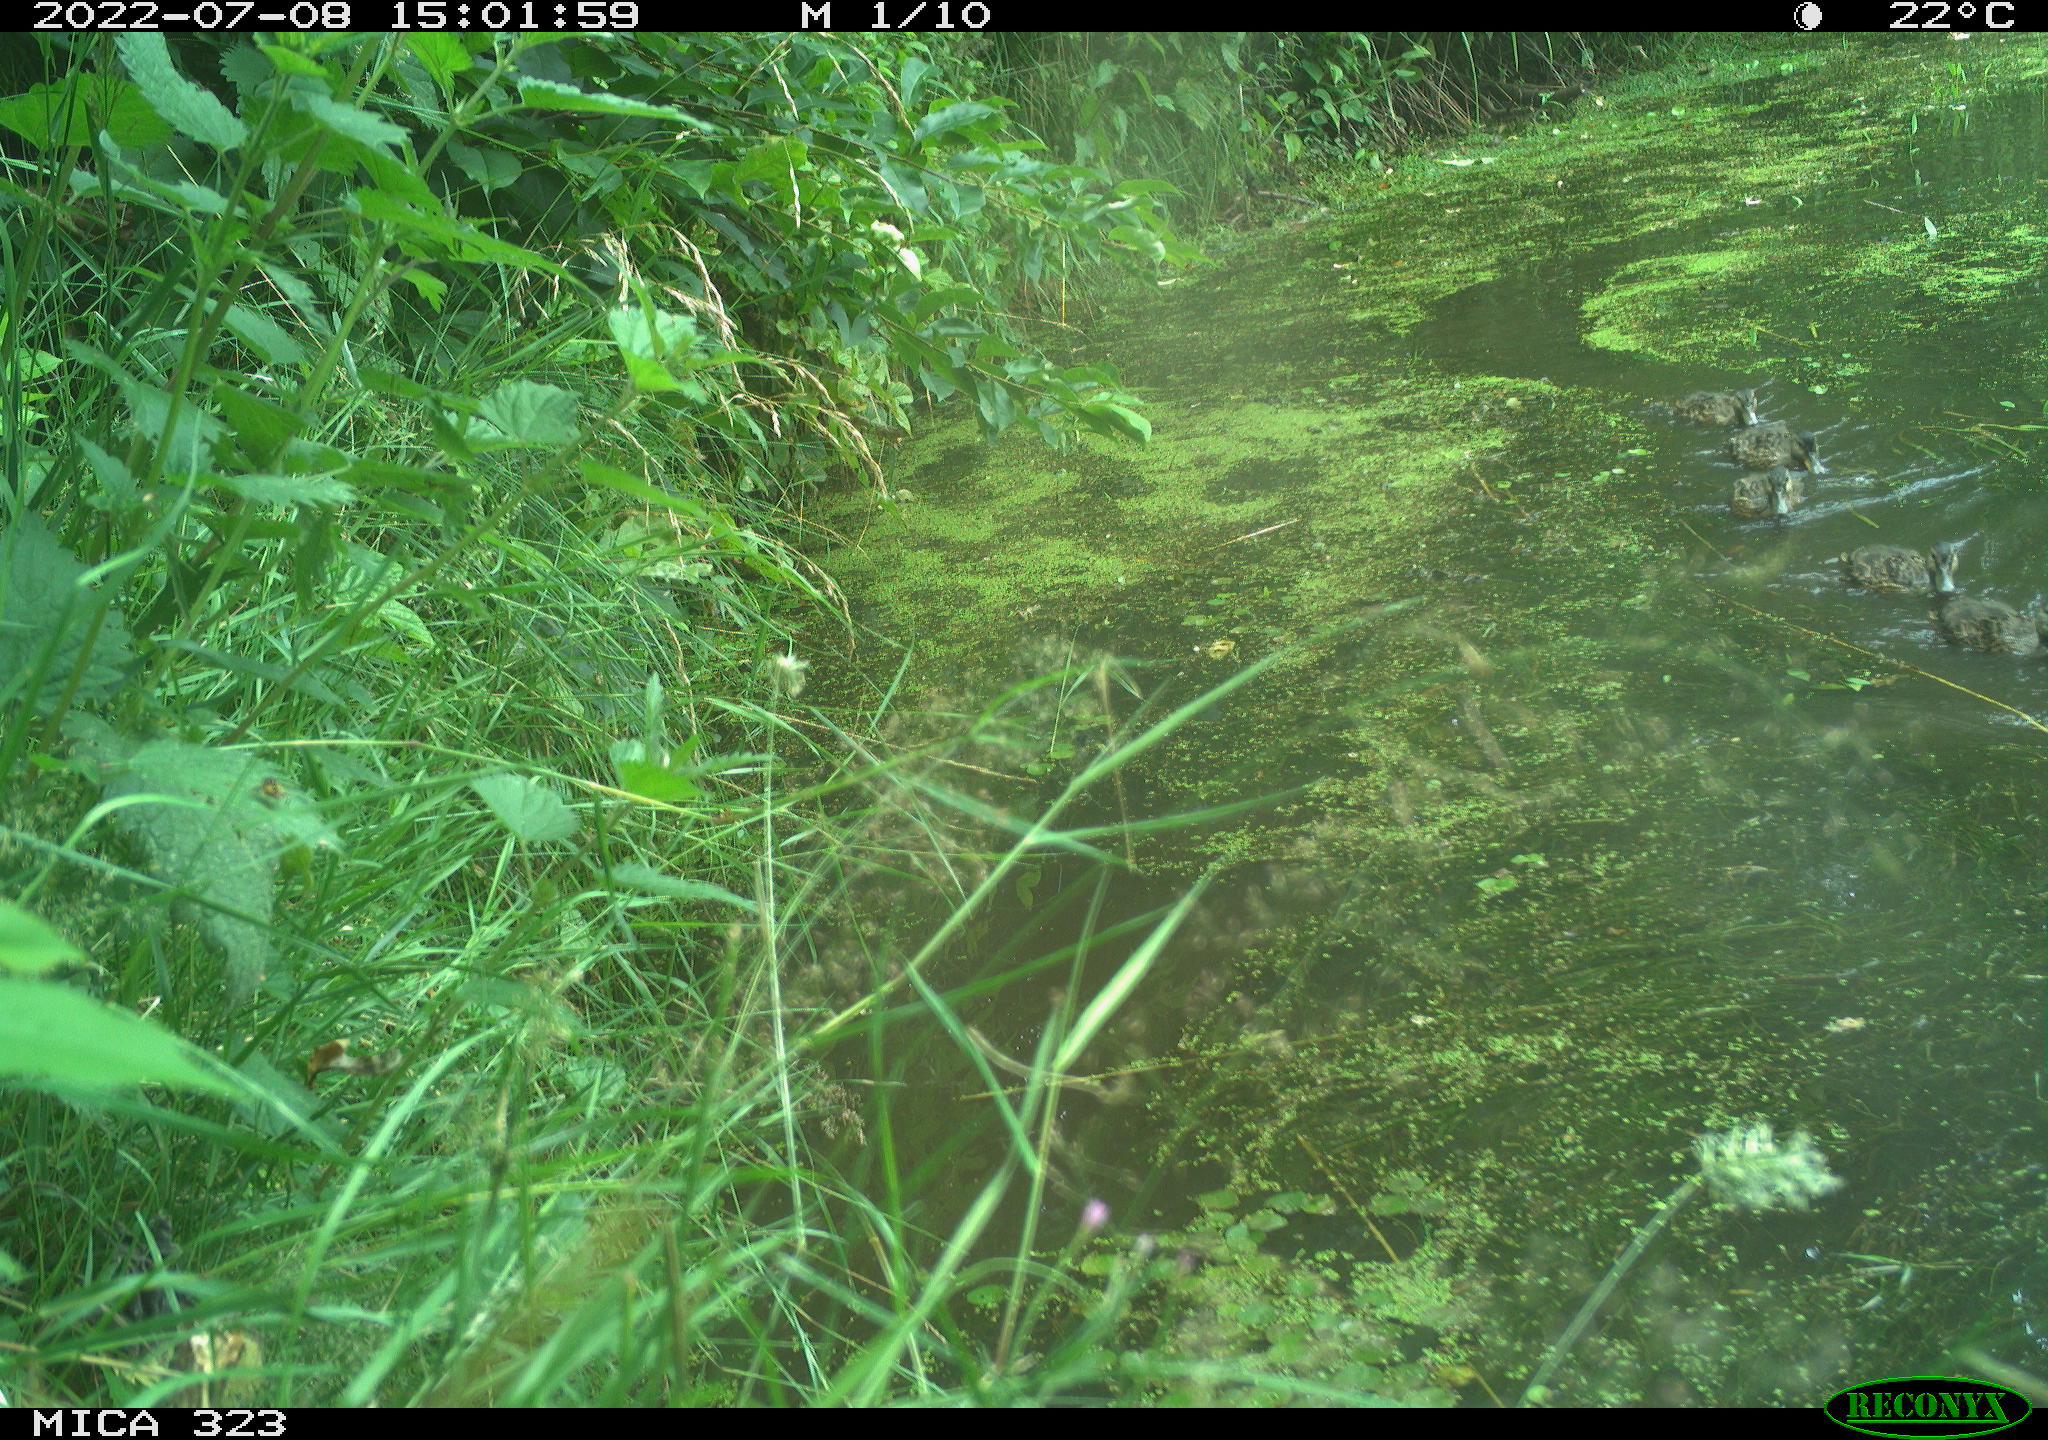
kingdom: Animalia
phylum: Chordata
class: Aves
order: Anseriformes
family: Anatidae
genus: Anas
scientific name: Anas platyrhynchos
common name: Mallard
